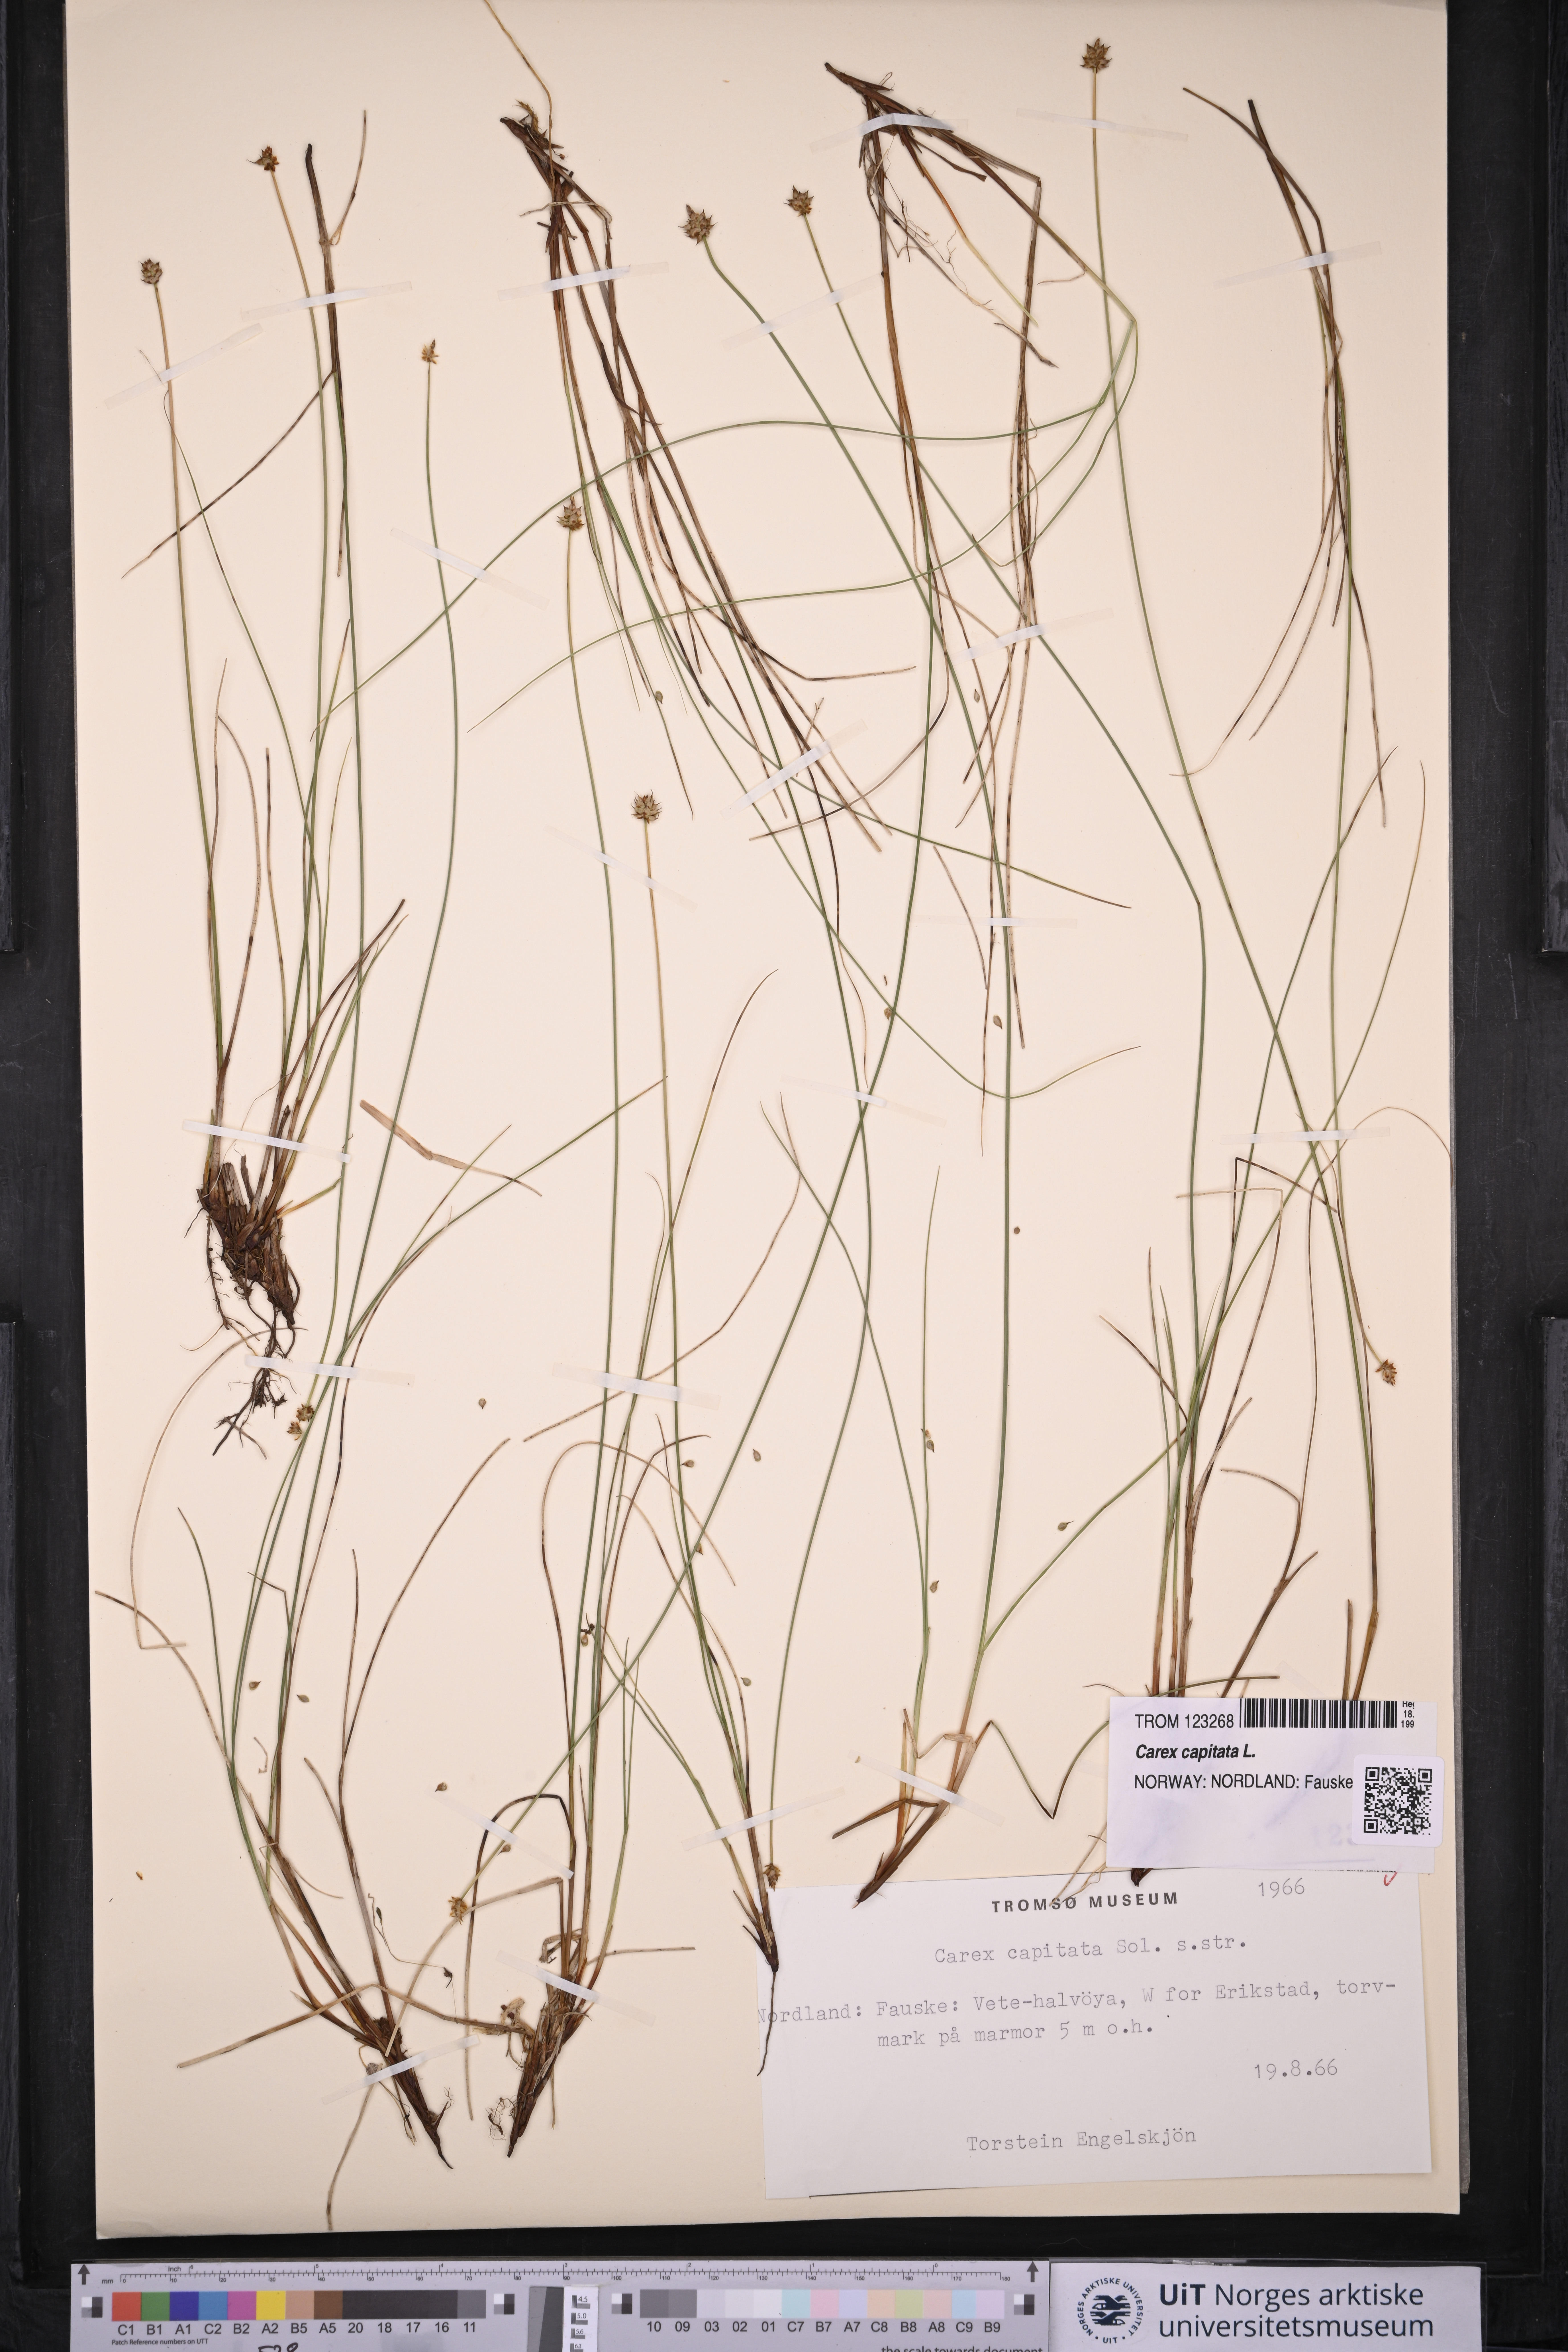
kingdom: Plantae
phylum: Tracheophyta
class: Liliopsida
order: Poales
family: Cyperaceae
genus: Carex
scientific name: Carex capitata
